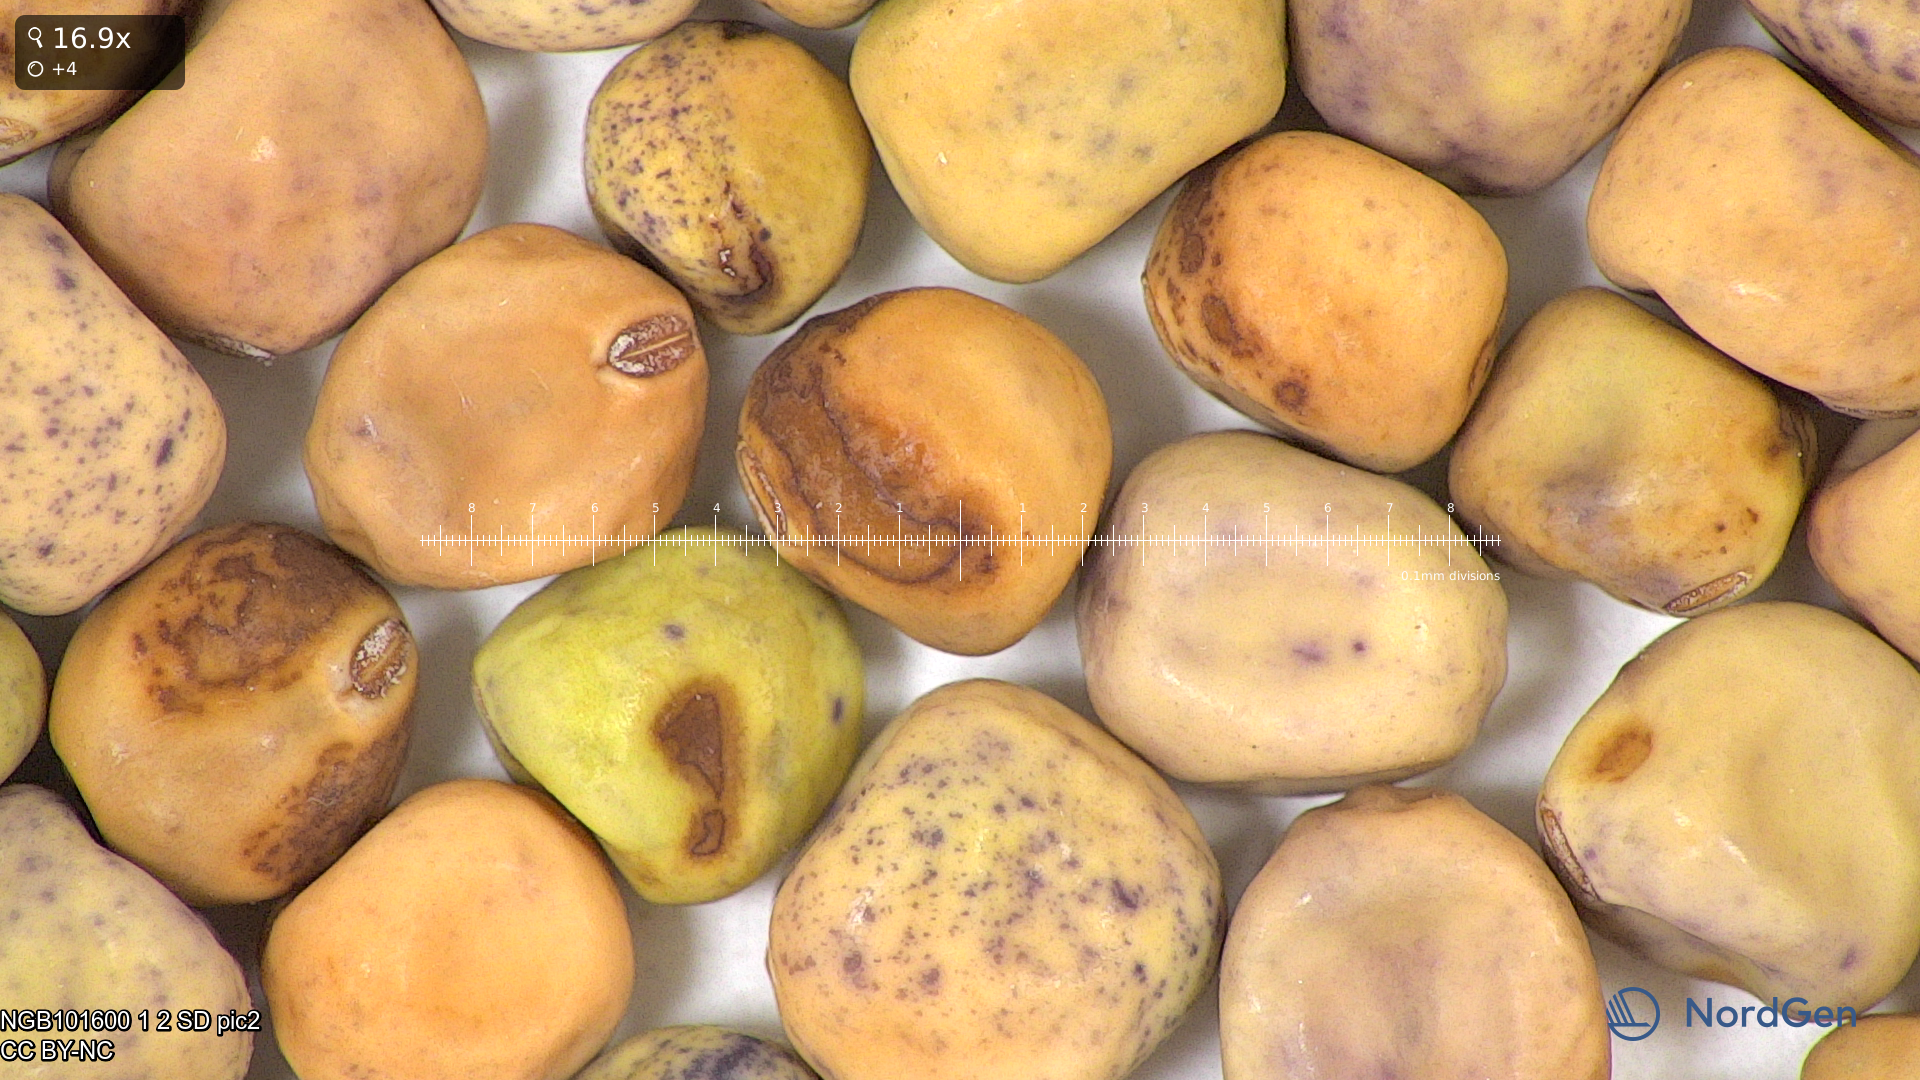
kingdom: Plantae
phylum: Tracheophyta
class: Magnoliopsida
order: Fabales
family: Fabaceae
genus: Lathyrus
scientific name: Lathyrus oleraceus
